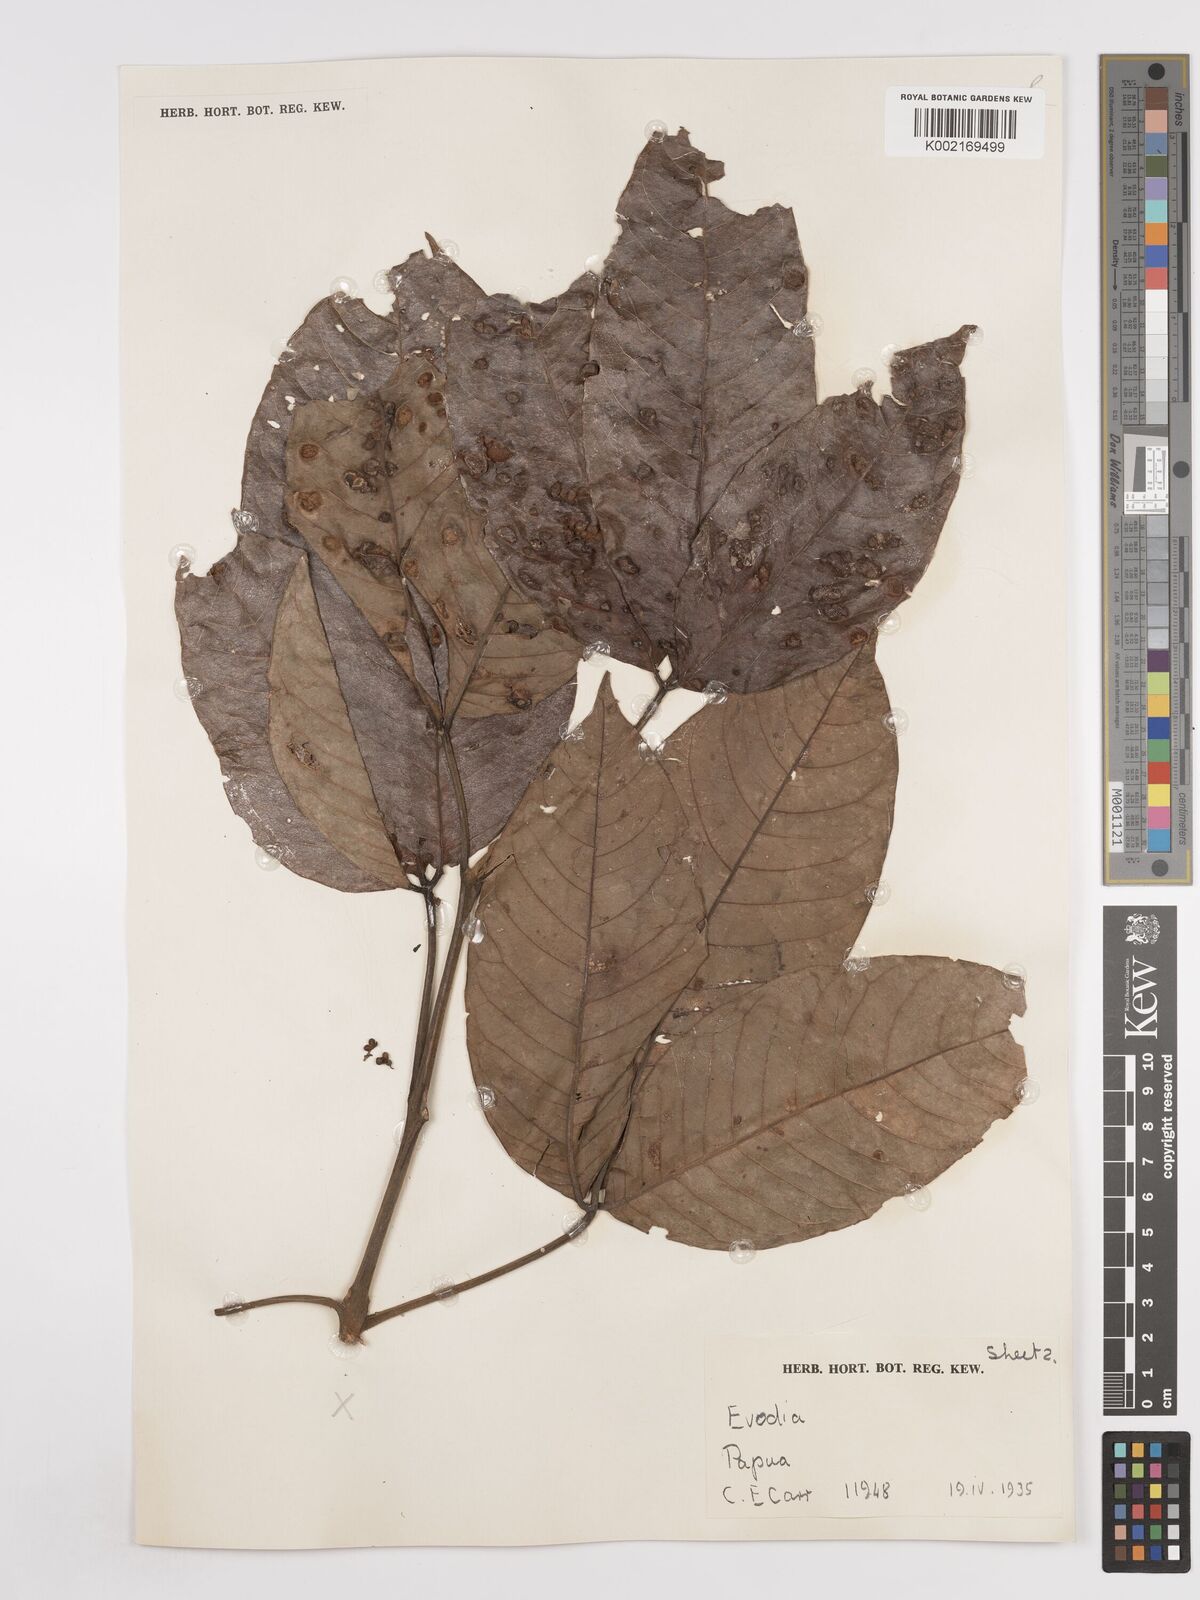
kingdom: Plantae
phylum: Tracheophyta
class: Magnoliopsida
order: Sapindales
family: Rutaceae
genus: Euodia
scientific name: Euodia
